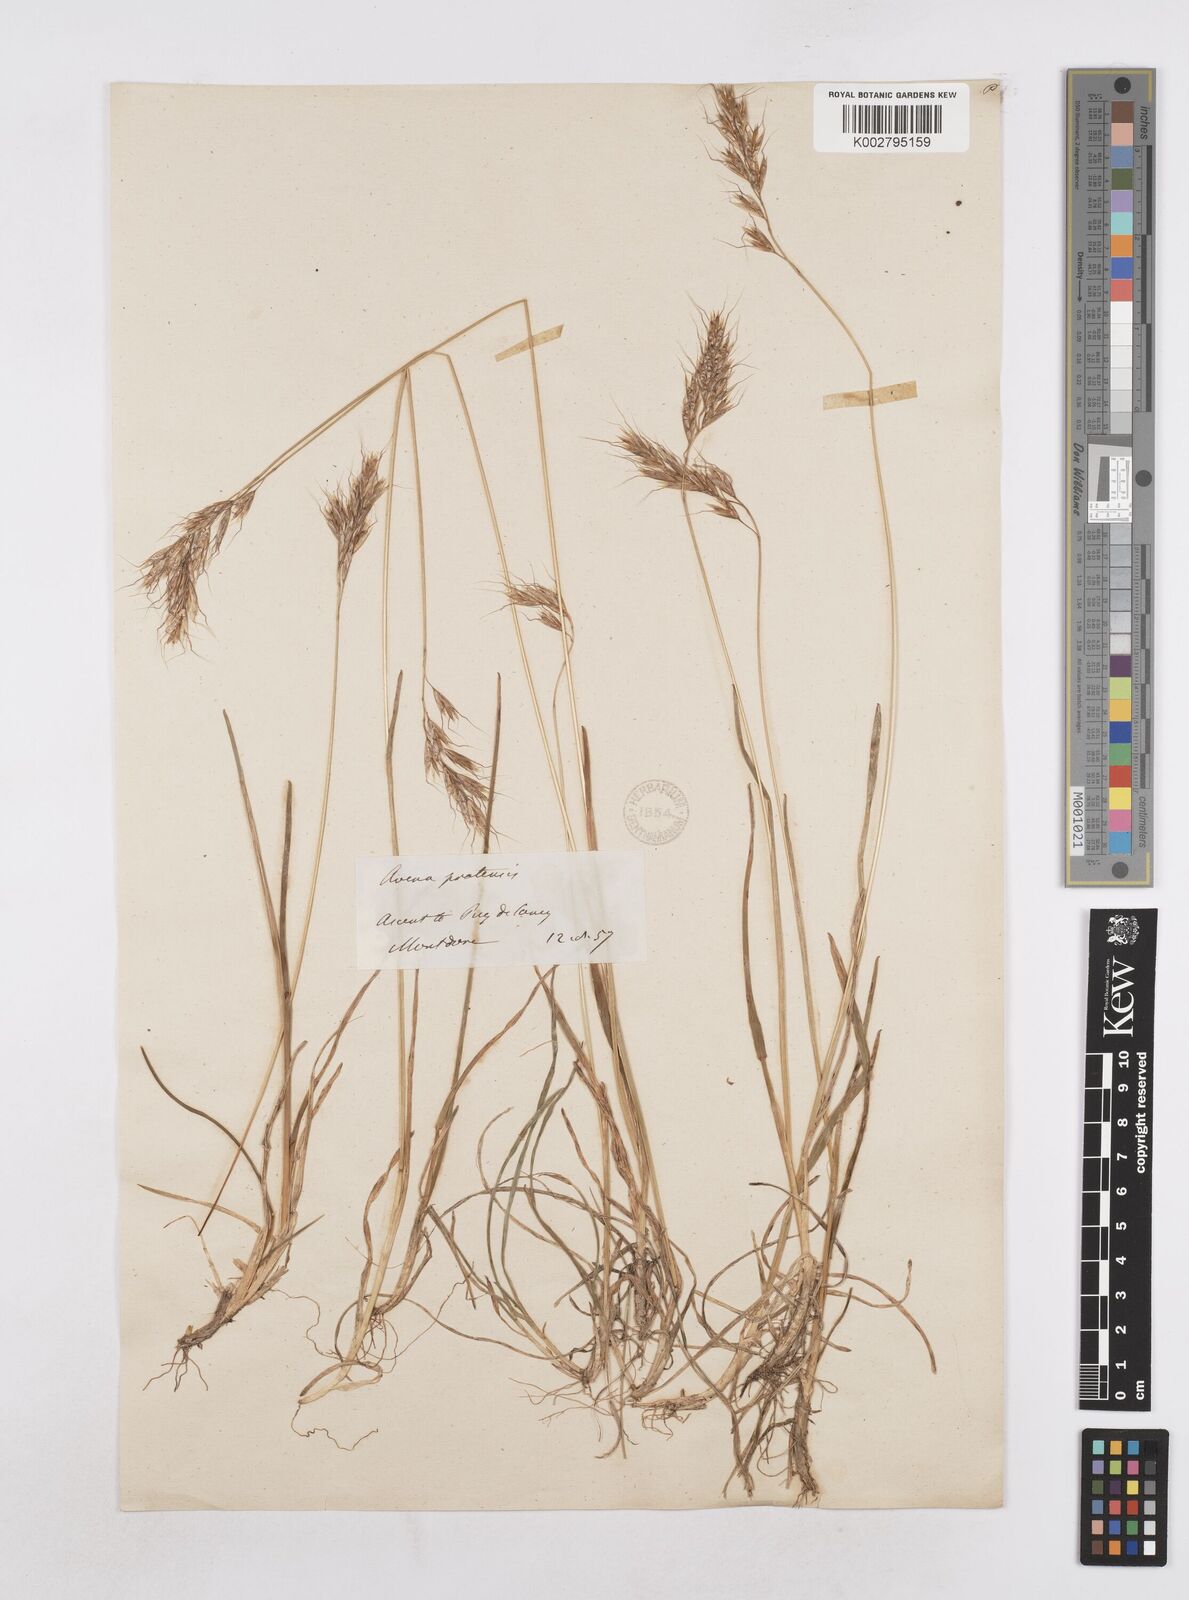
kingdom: Plantae
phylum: Tracheophyta
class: Liliopsida
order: Poales
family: Poaceae
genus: Helictochloa
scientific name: Helictochloa pratensis
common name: Meadow oat grass
